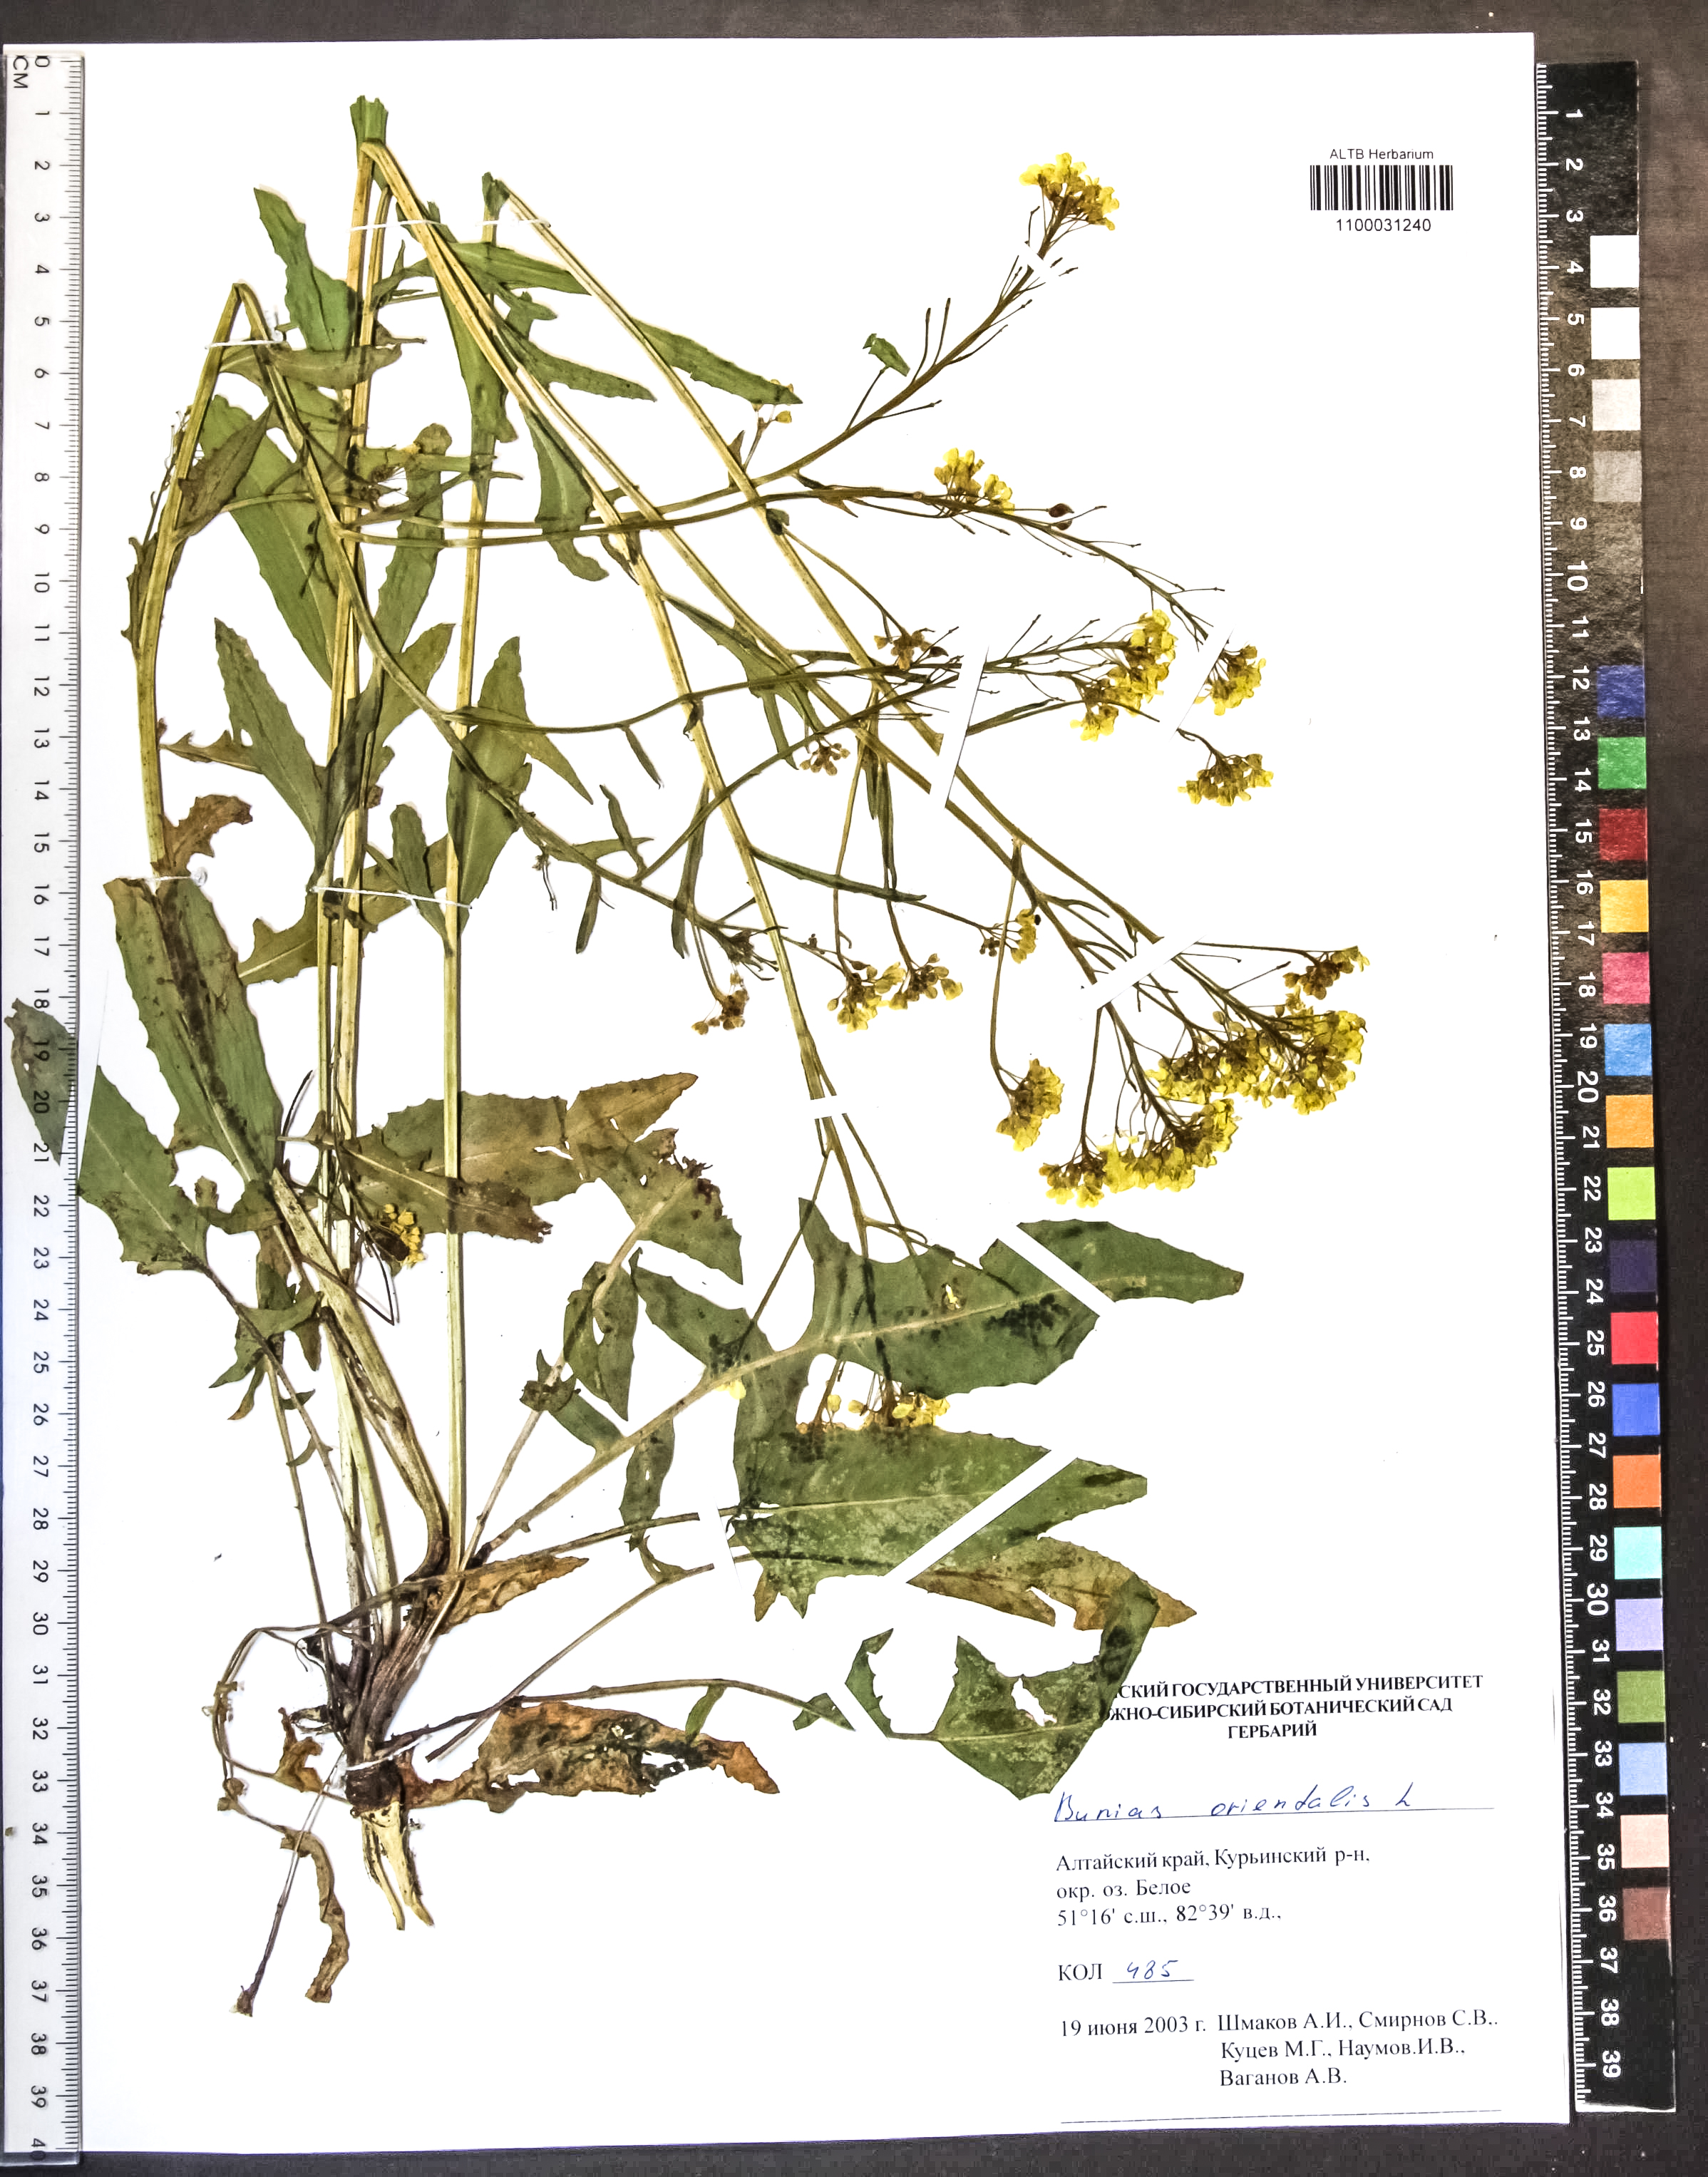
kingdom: Plantae
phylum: Tracheophyta
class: Magnoliopsida
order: Brassicales
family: Brassicaceae
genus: Bunias
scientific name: Bunias orientalis
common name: Warty-cabbage
